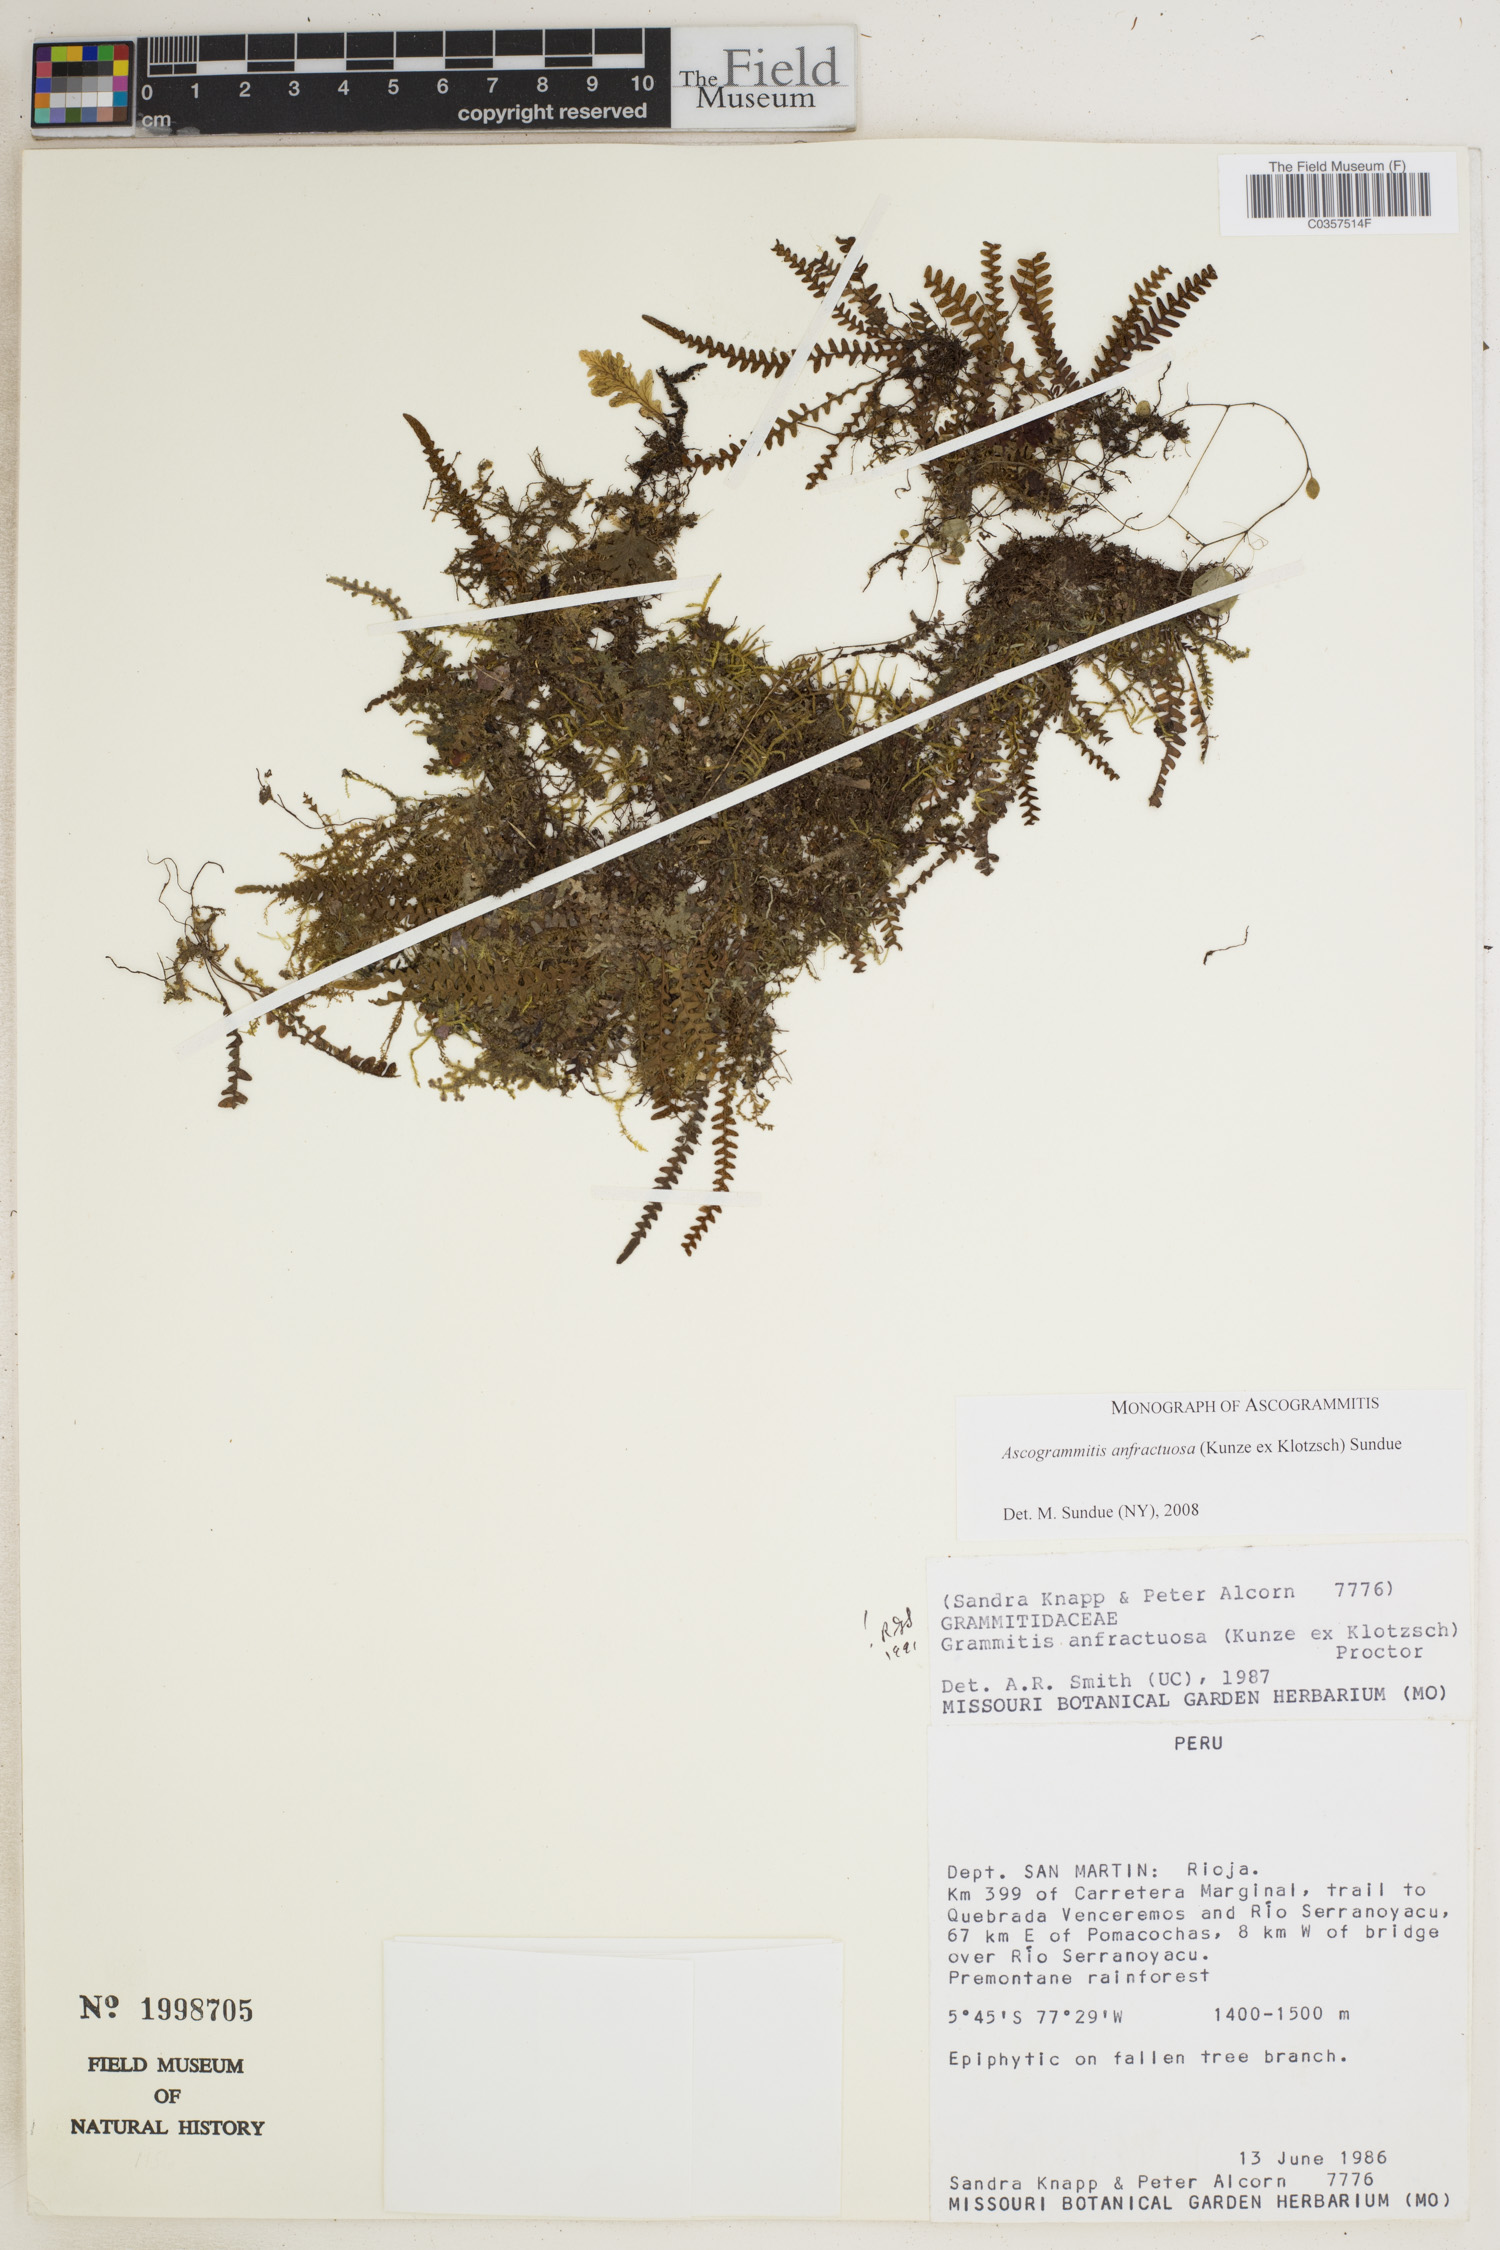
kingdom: Plantae
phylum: Tracheophyta
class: Polypodiopsida
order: Polypodiales
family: Polypodiaceae
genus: Ascogrammitis
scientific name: Ascogrammitis anfractuosa
